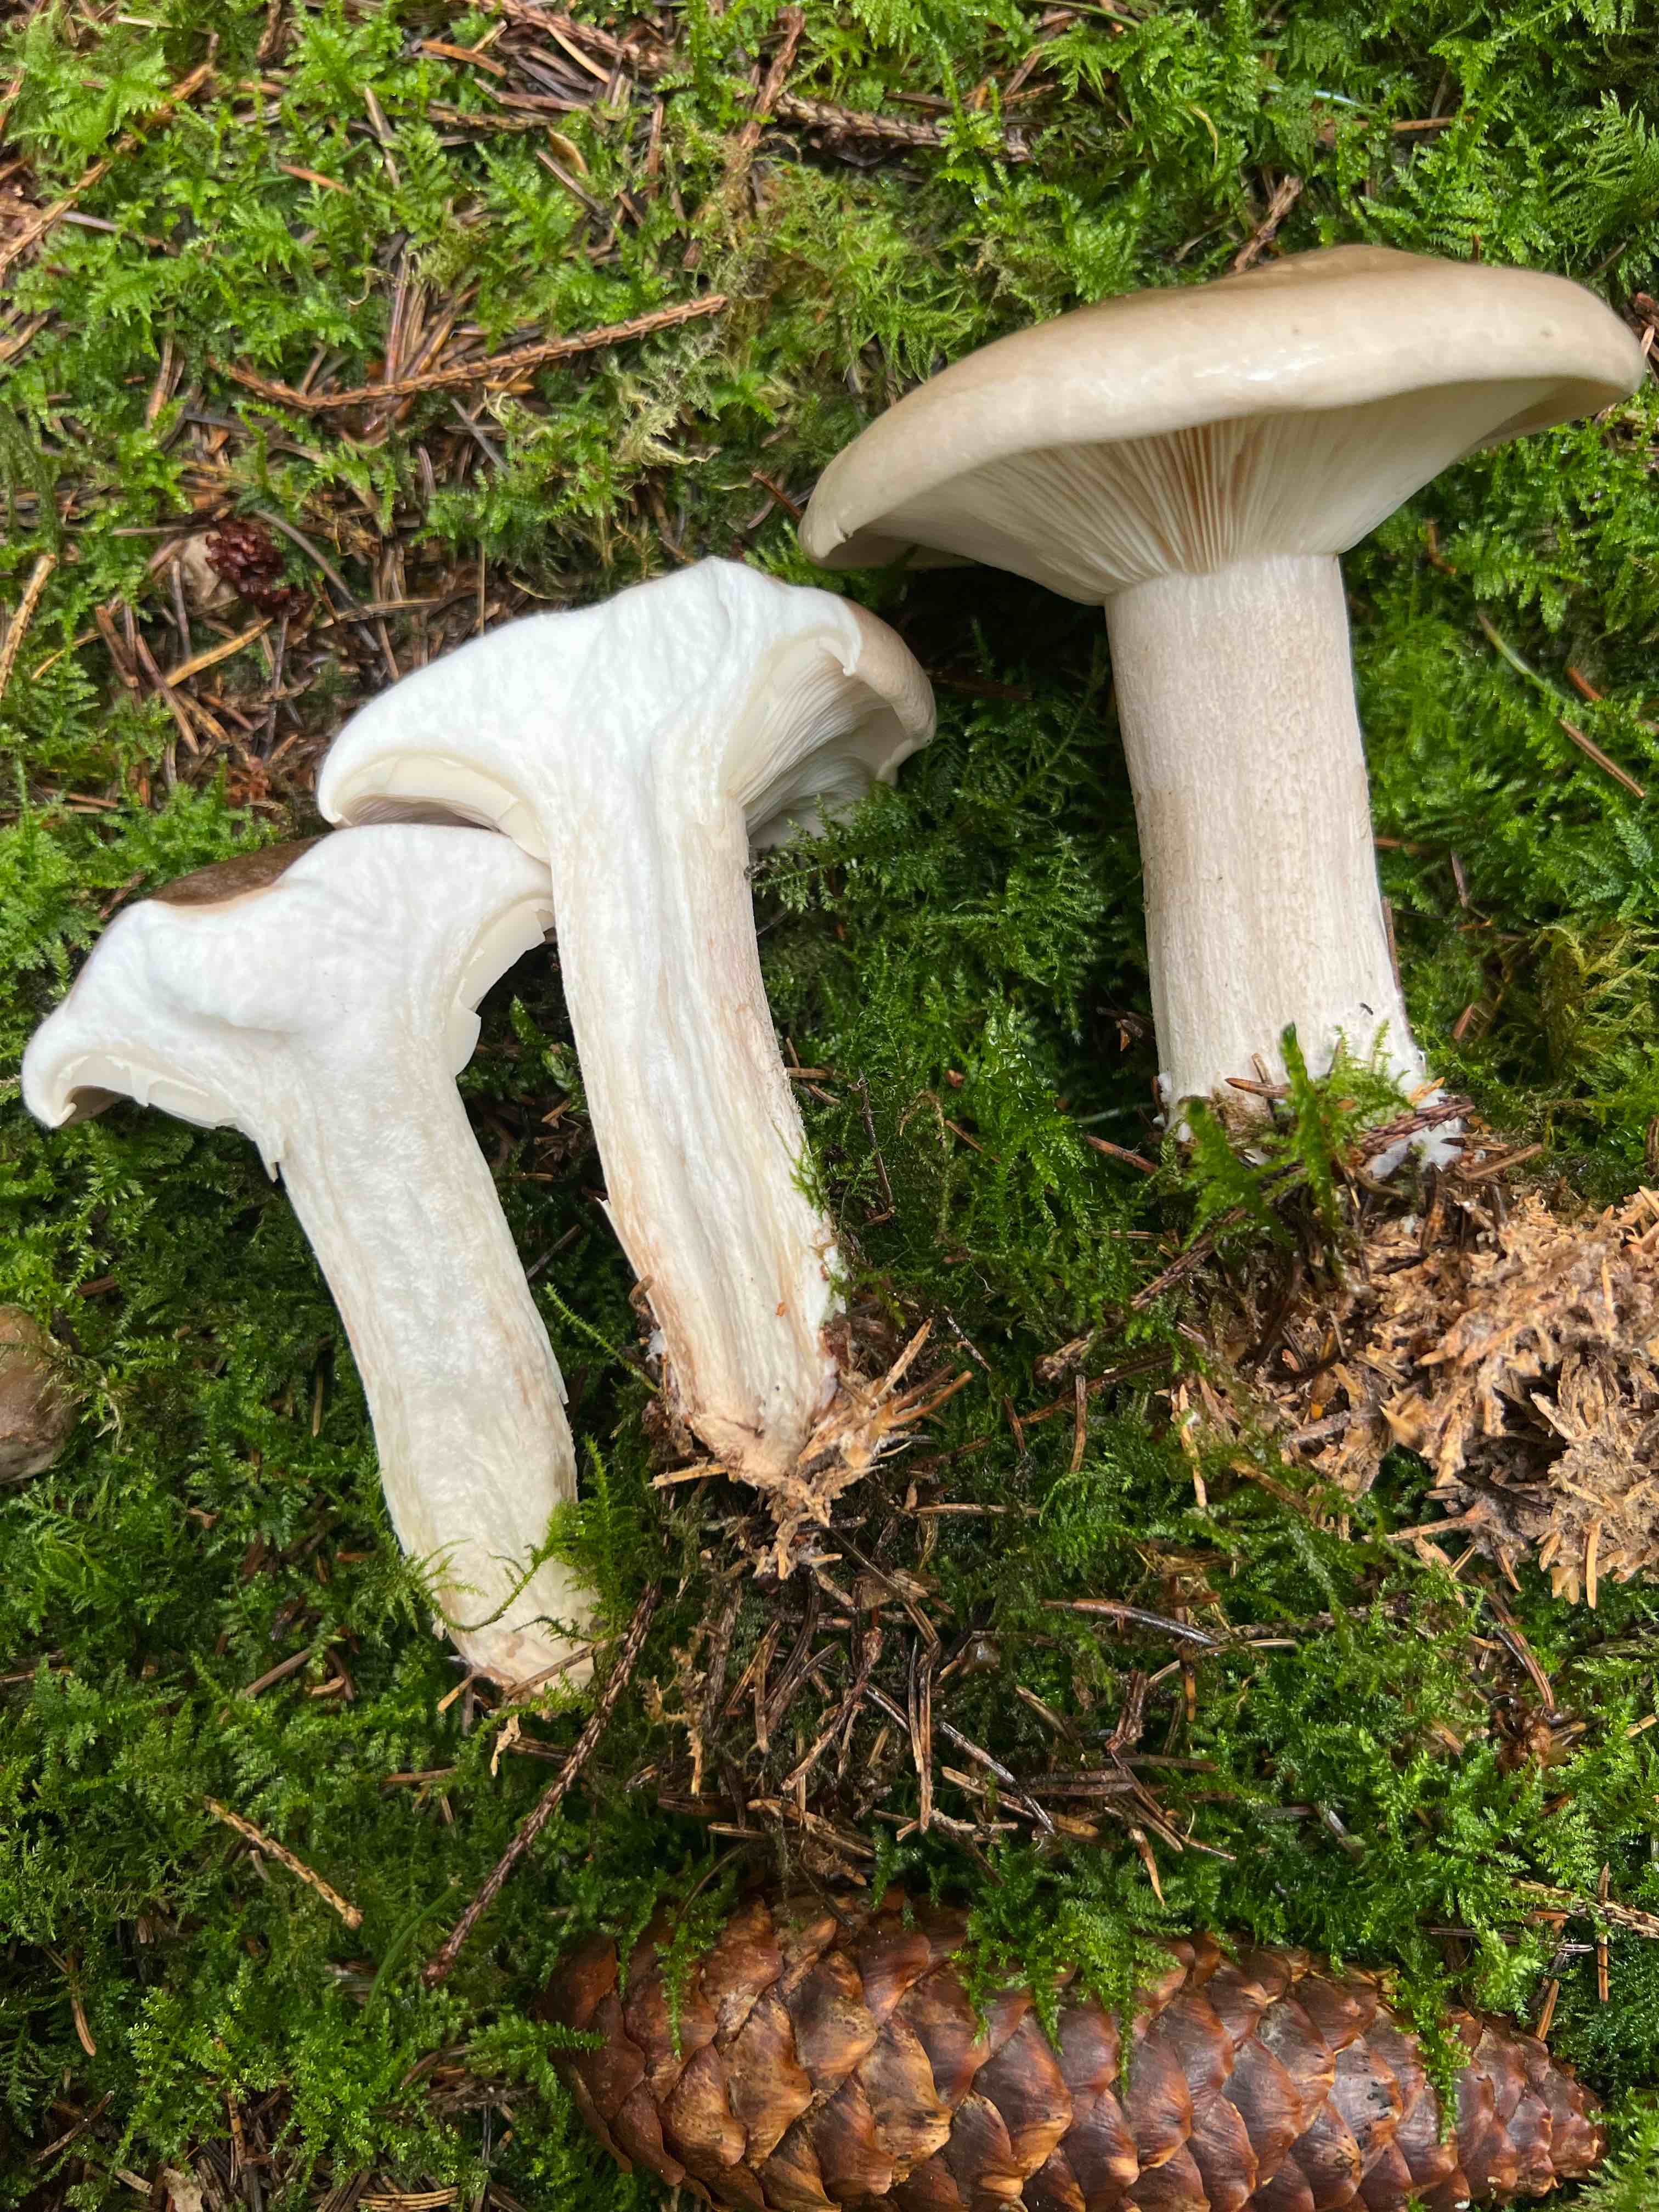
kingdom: Fungi
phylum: Basidiomycota
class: Agaricomycetes
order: Agaricales
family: Tricholomataceae
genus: Clitocybe
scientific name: Clitocybe nebularis
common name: tåge-tragthat
